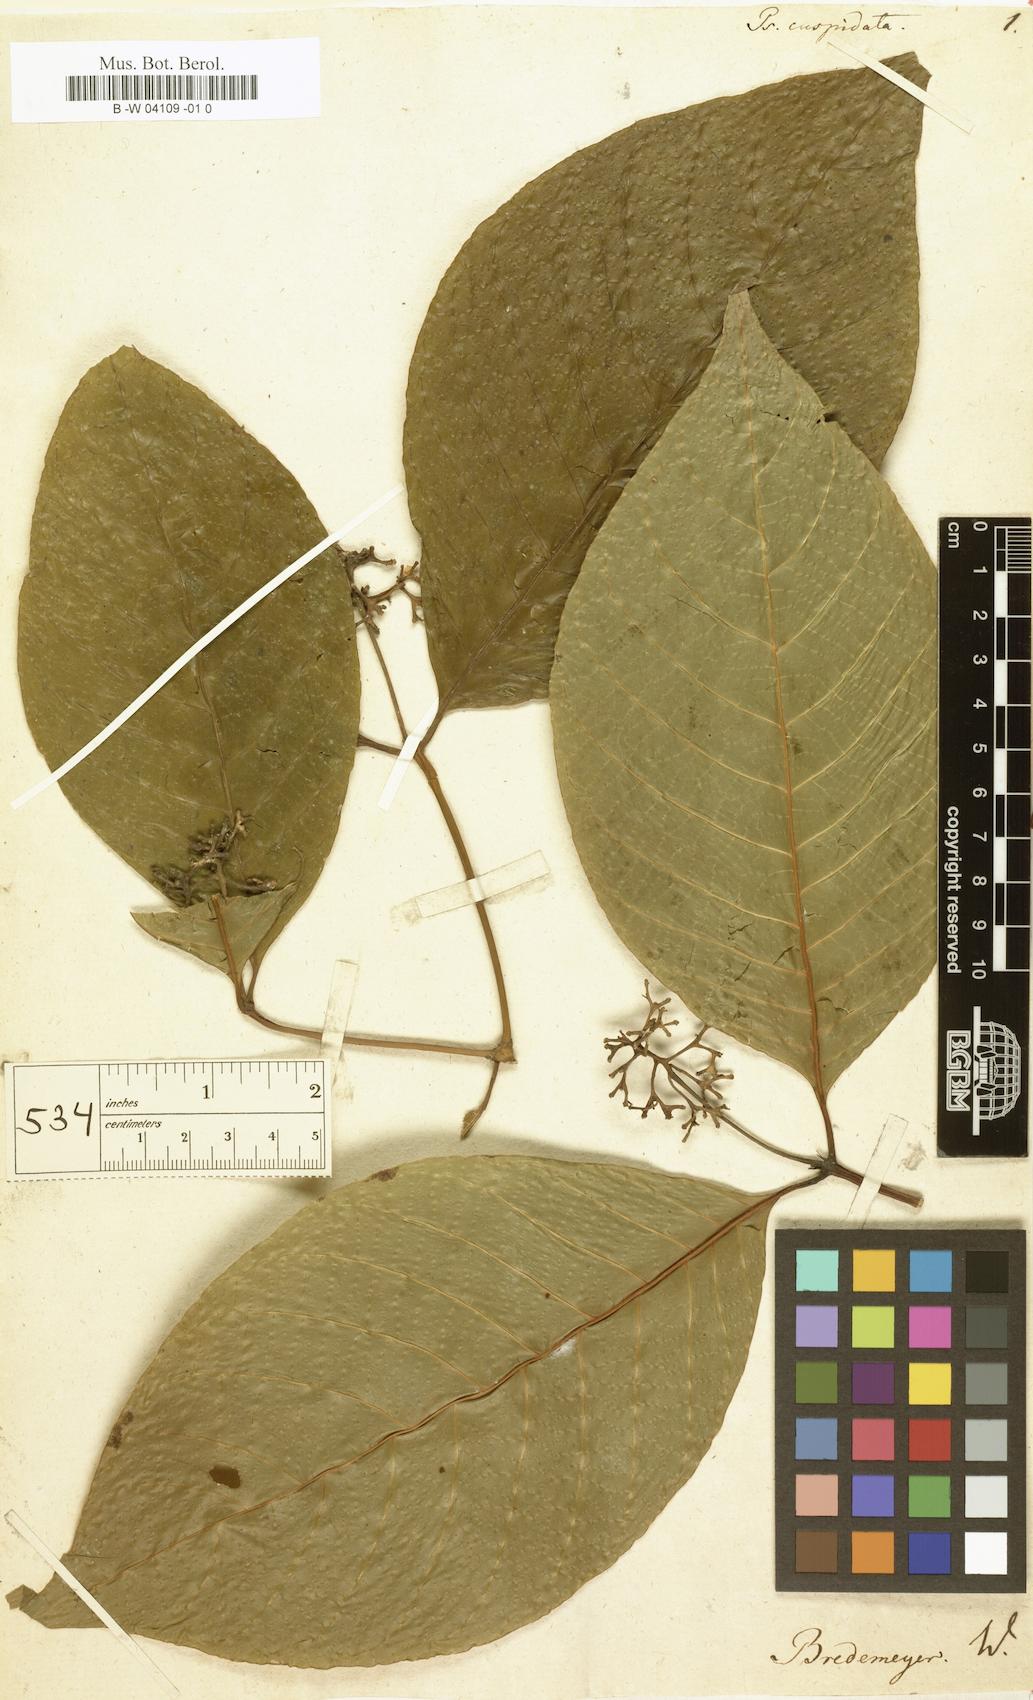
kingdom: Plantae
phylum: Tracheophyta
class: Magnoliopsida
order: Gentianales
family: Rubiaceae
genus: Palicourea
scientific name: Palicourea cuspidata
